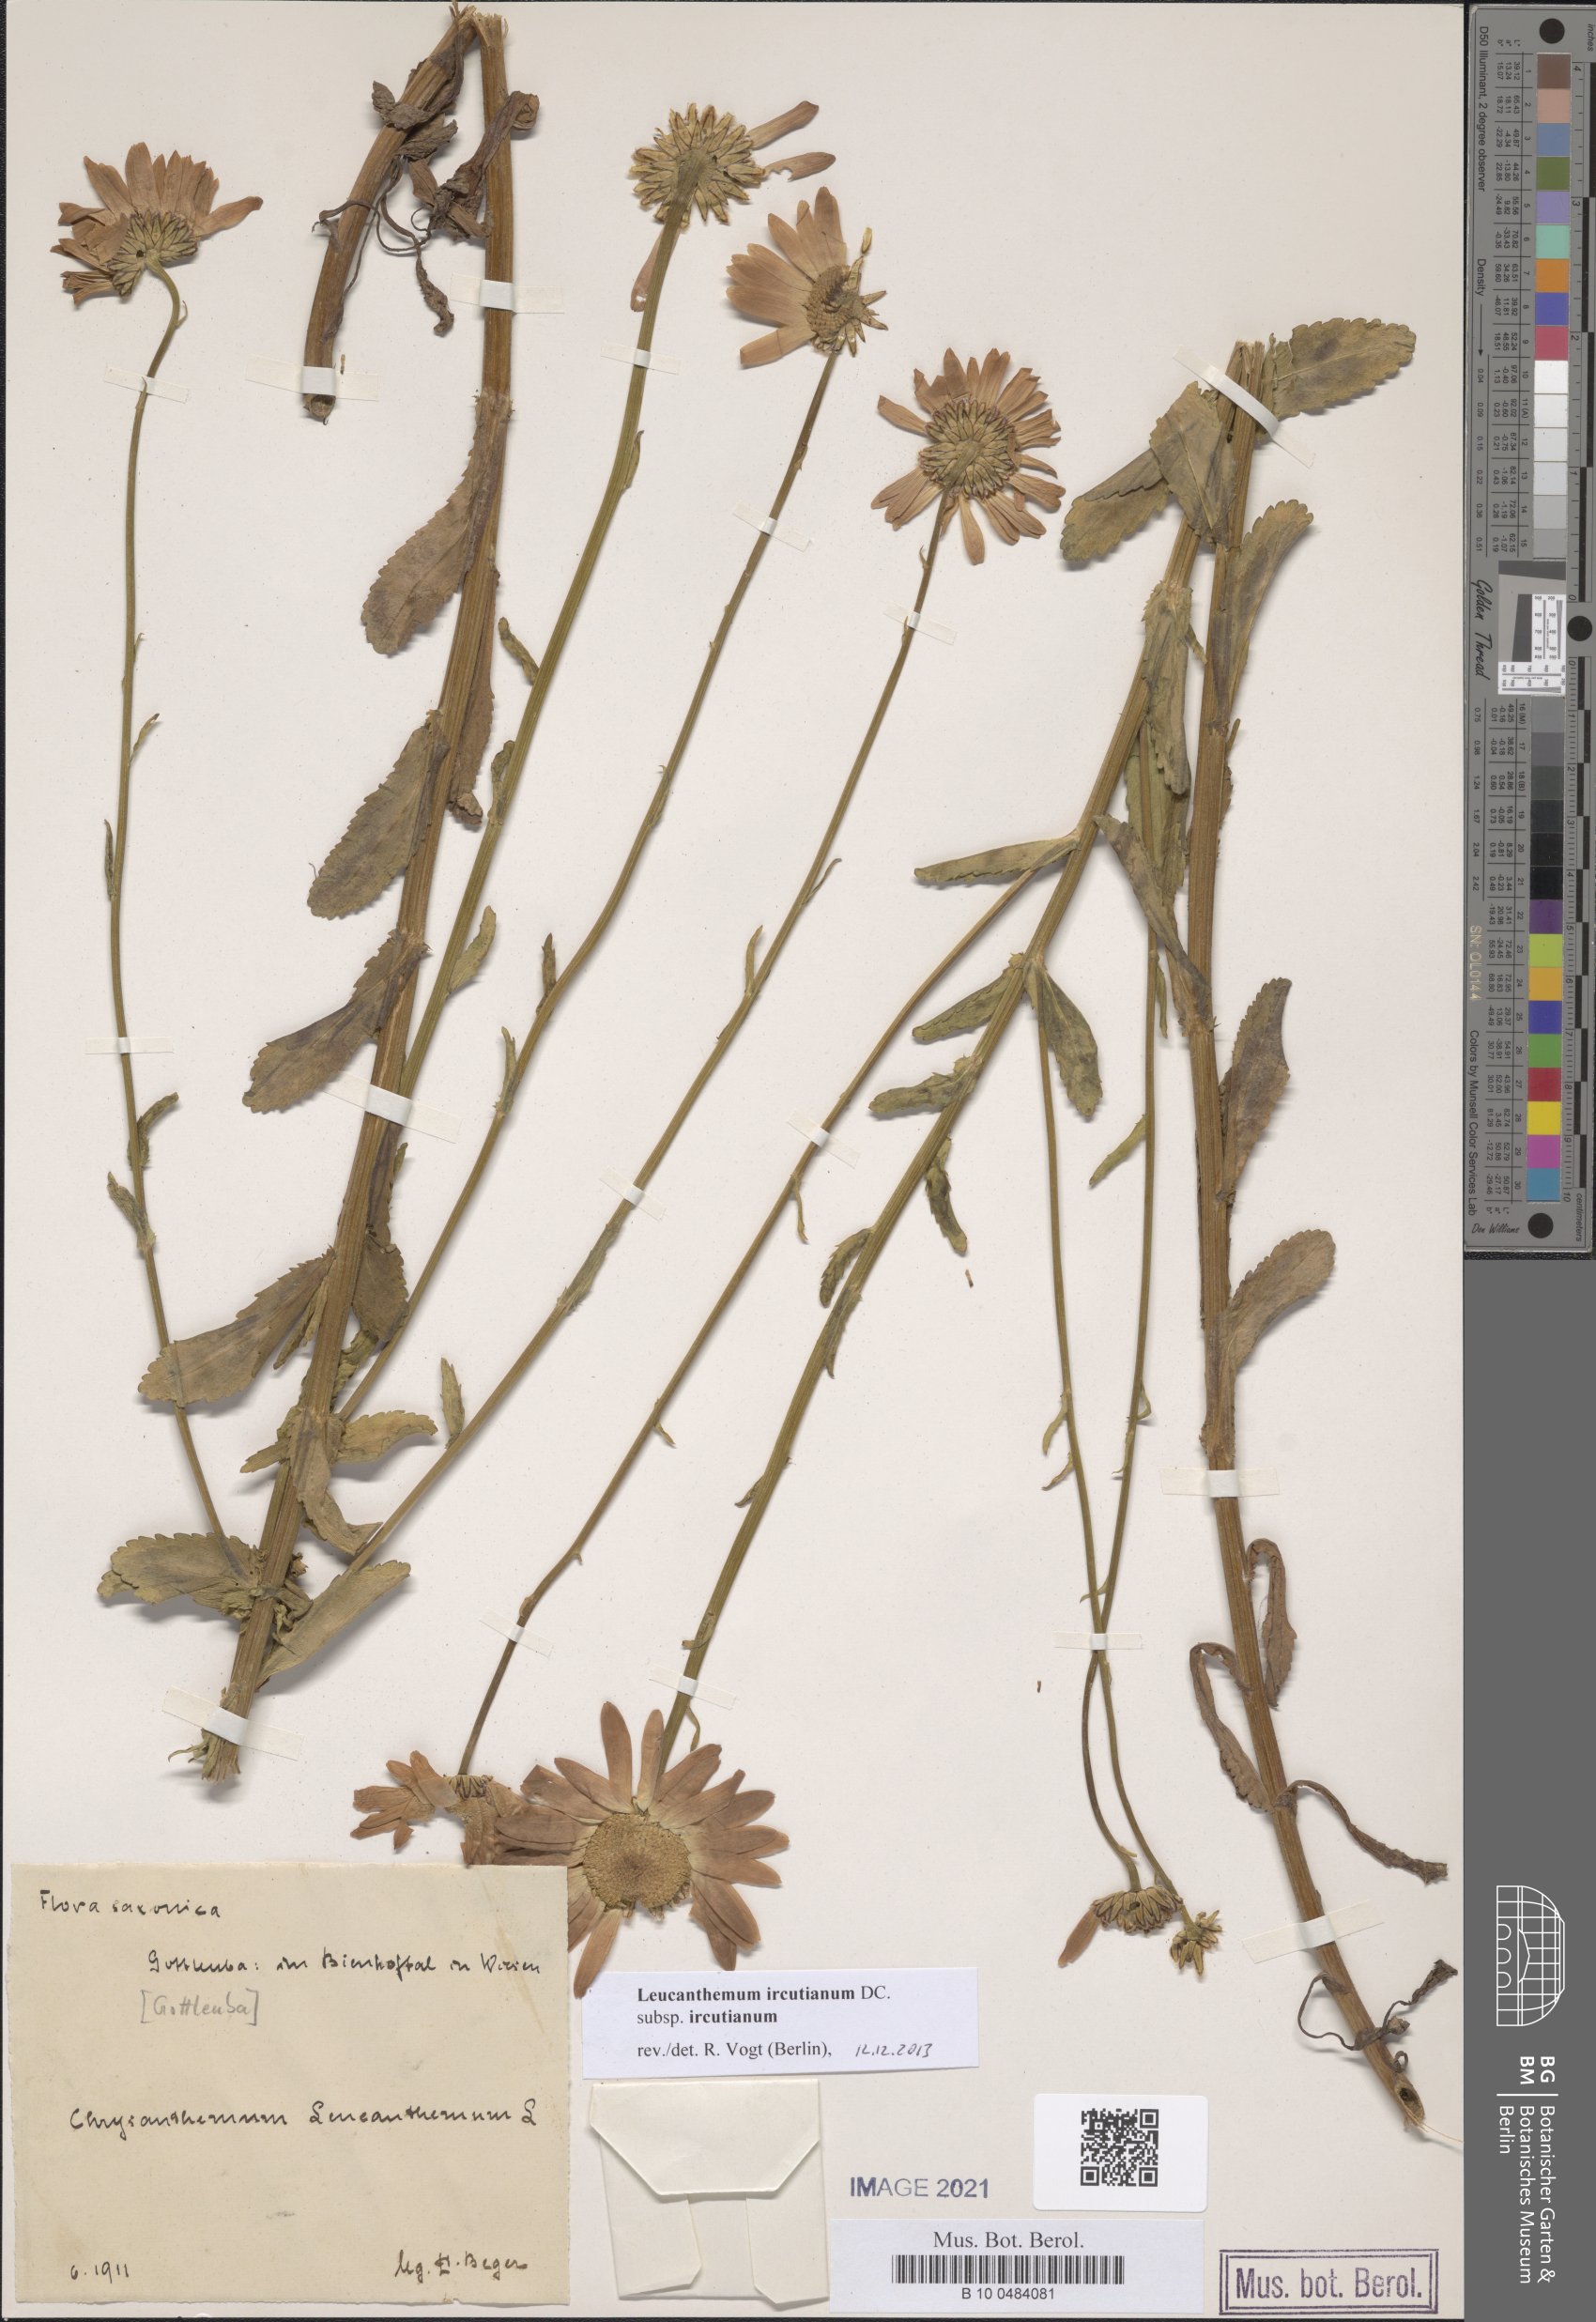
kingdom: Plantae
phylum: Tracheophyta
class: Magnoliopsida
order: Asterales
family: Asteraceae
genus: Leucanthemum
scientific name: Leucanthemum ircutianum
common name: Daisy
